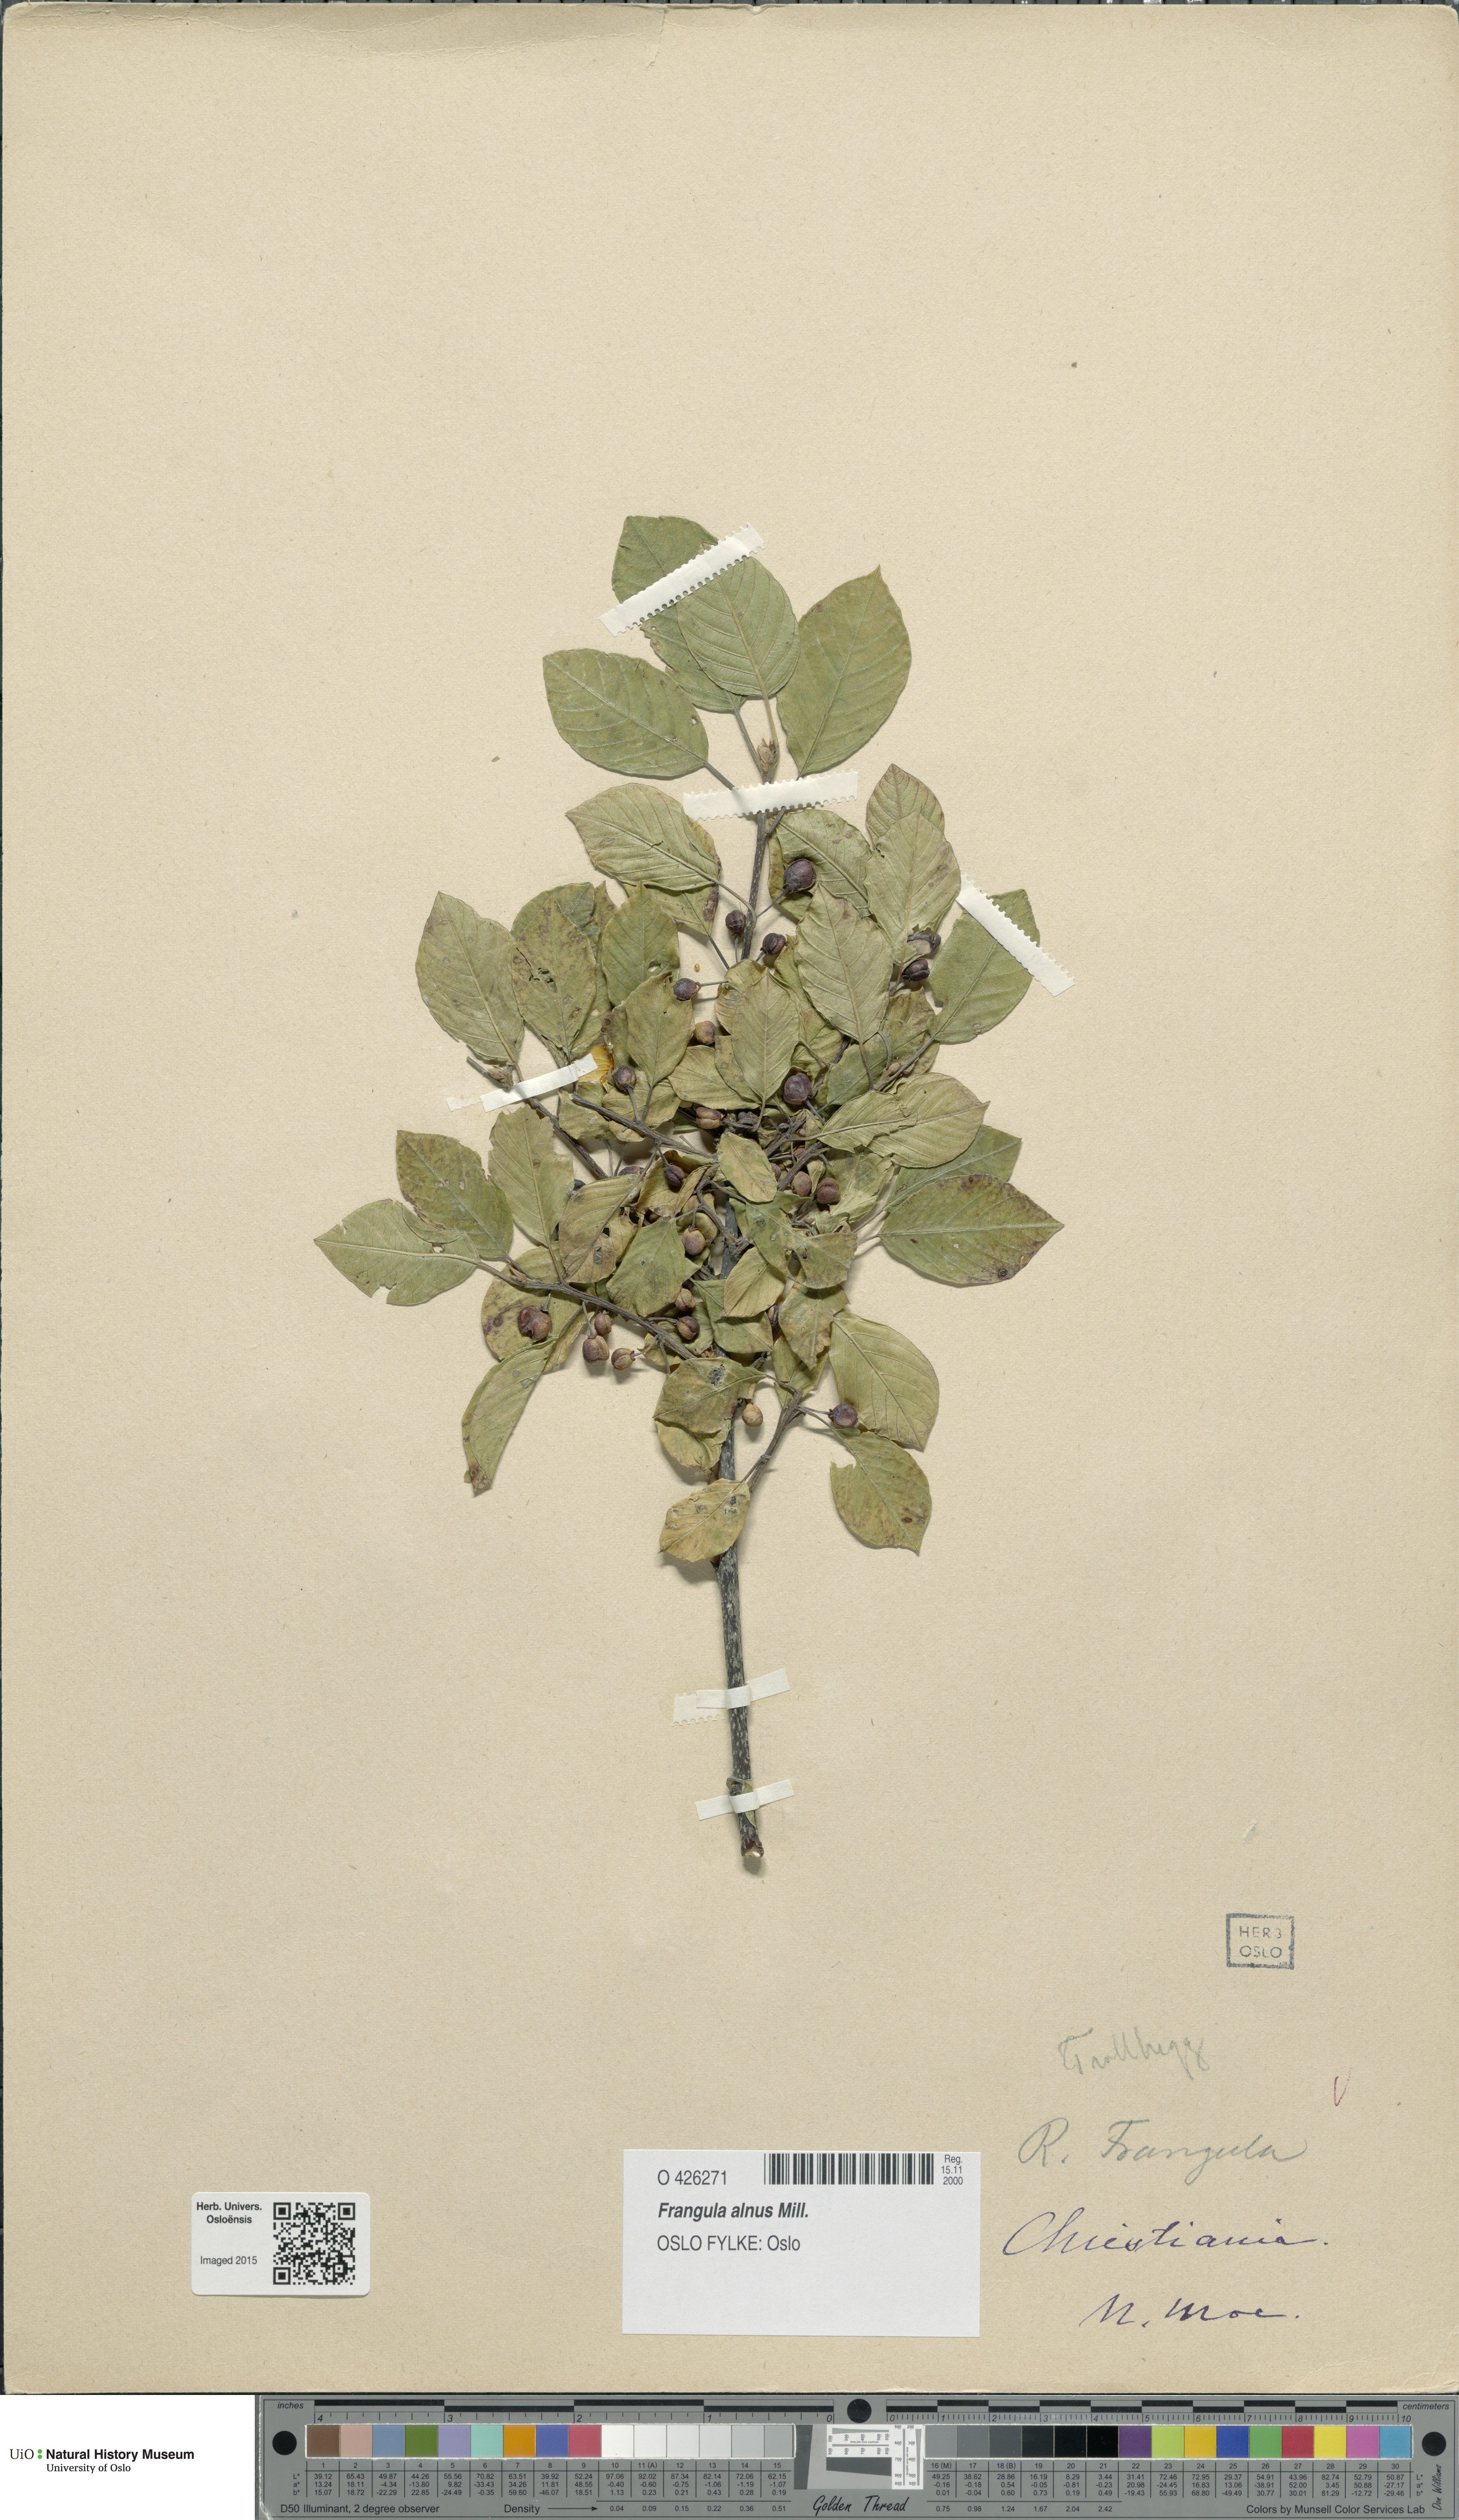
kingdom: Plantae
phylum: Tracheophyta
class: Magnoliopsida
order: Rosales
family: Rhamnaceae
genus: Frangula
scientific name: Frangula alnus
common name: Alder buckthorn
